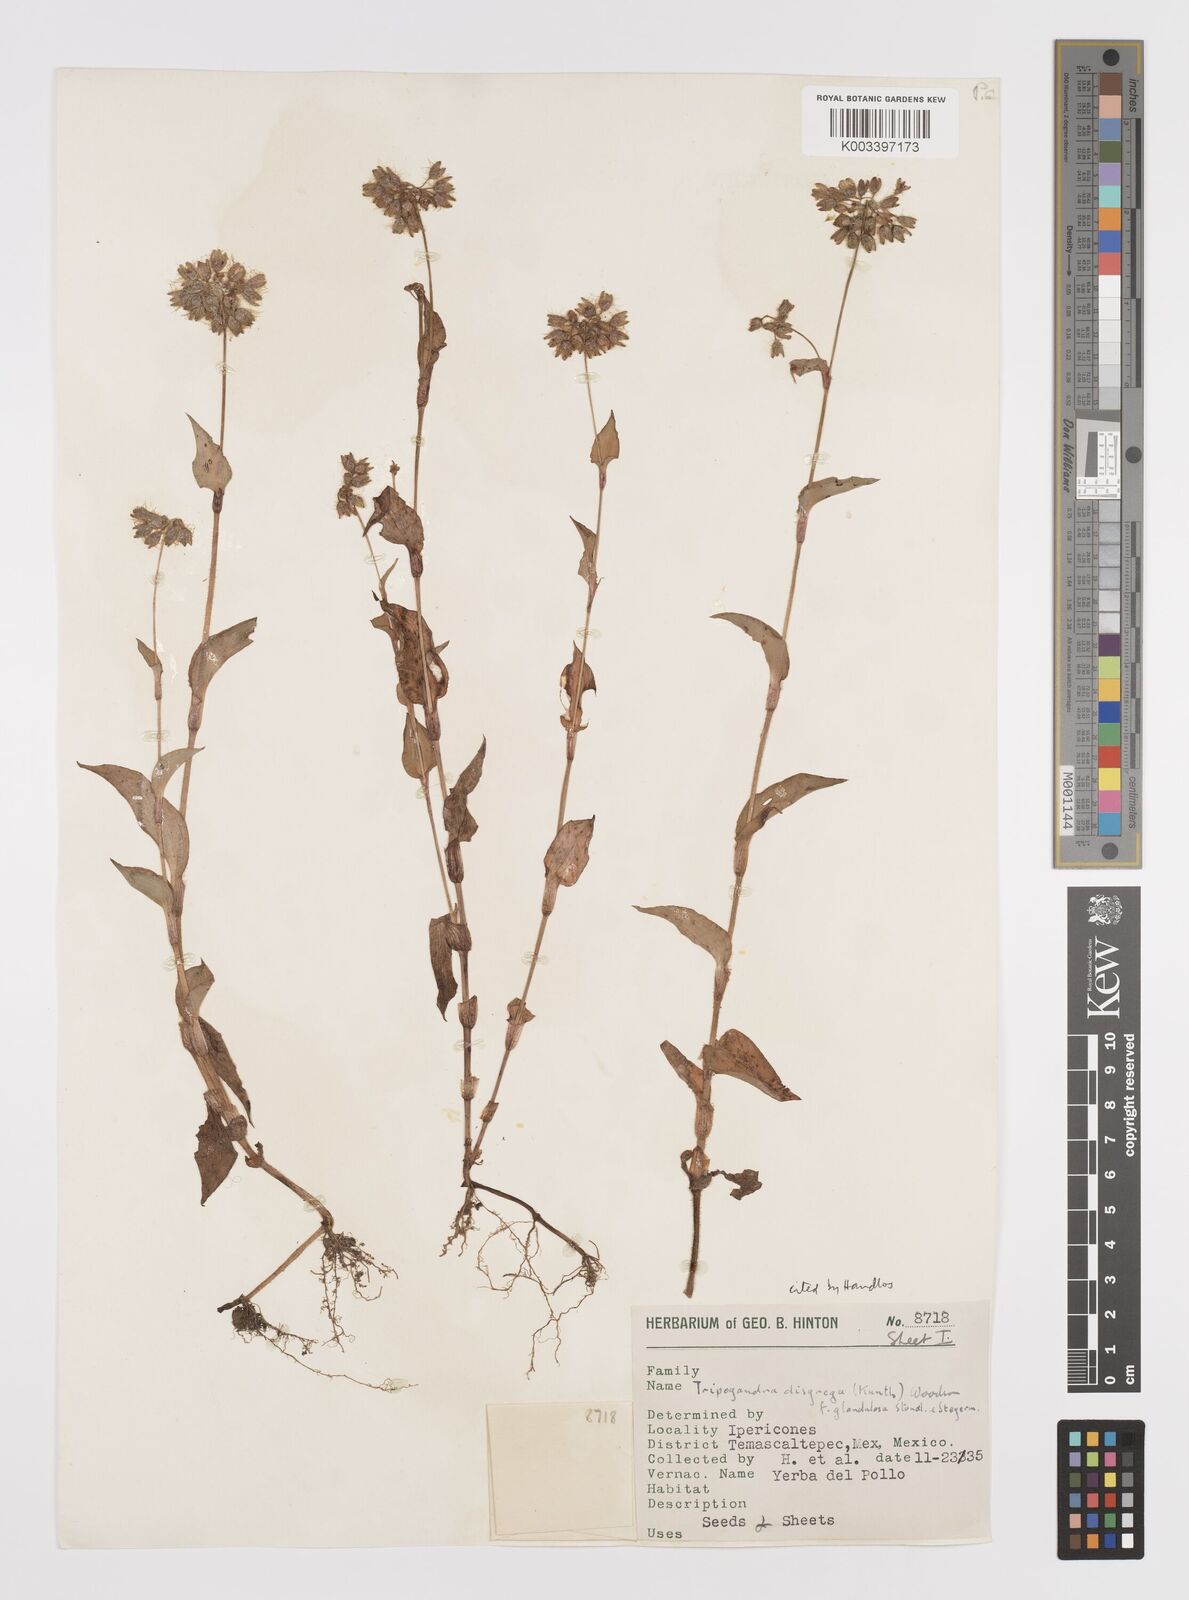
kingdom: Plantae
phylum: Tracheophyta
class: Liliopsida
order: Commelinales
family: Commelinaceae
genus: Callisia
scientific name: Callisia disgrega
